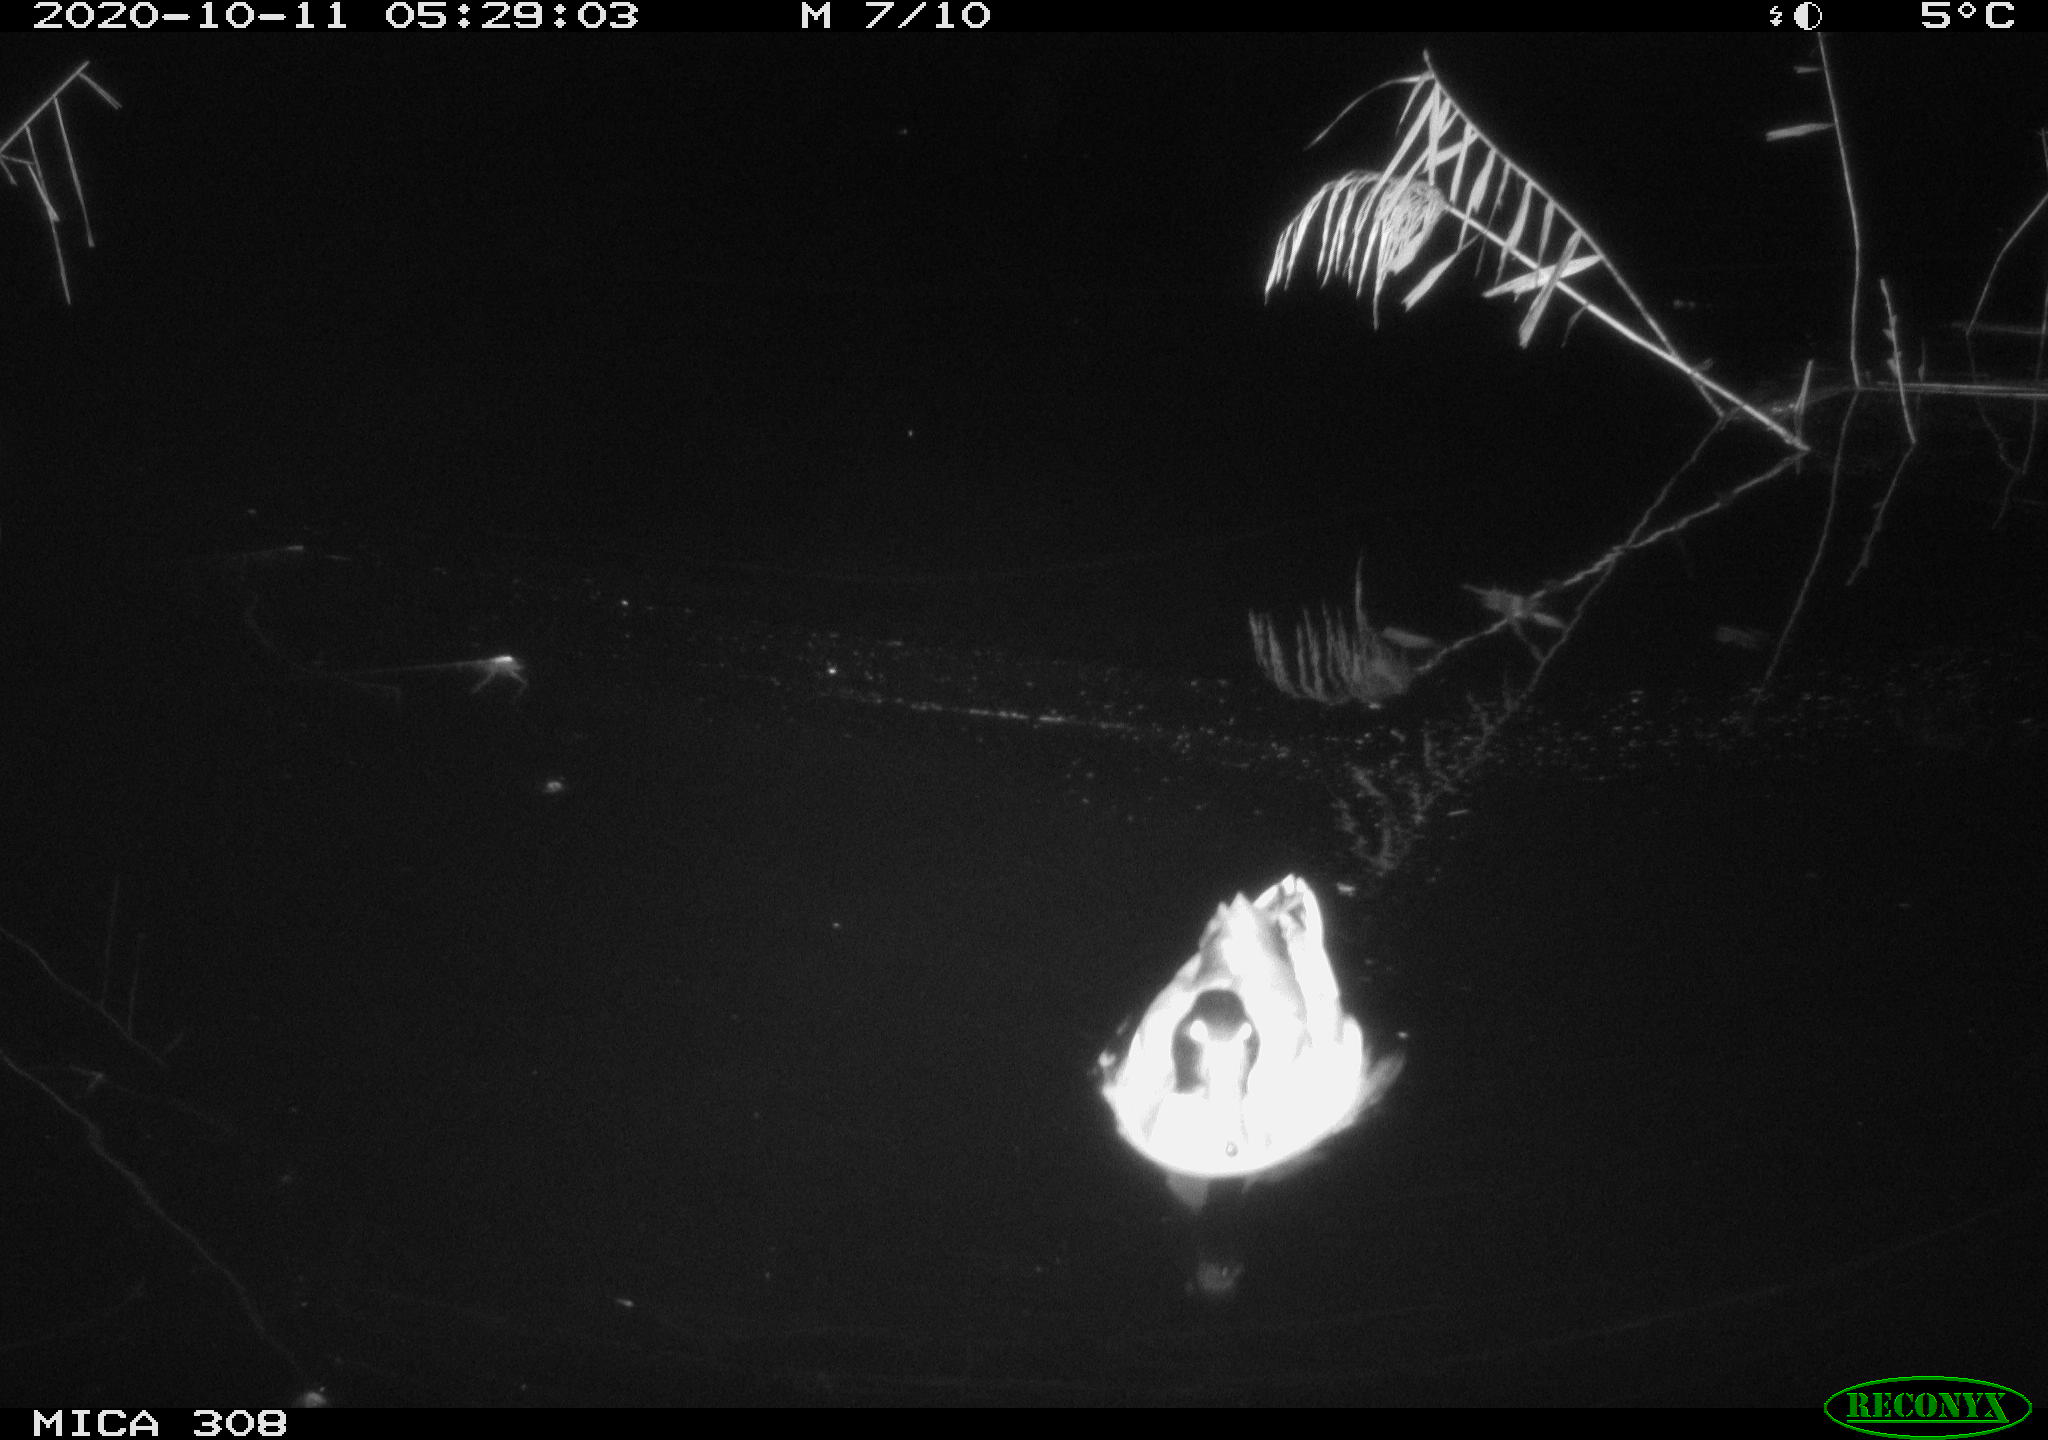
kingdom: Animalia
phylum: Chordata
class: Aves
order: Anseriformes
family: Anatidae
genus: Anas
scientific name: Anas platyrhynchos
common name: Mallard
